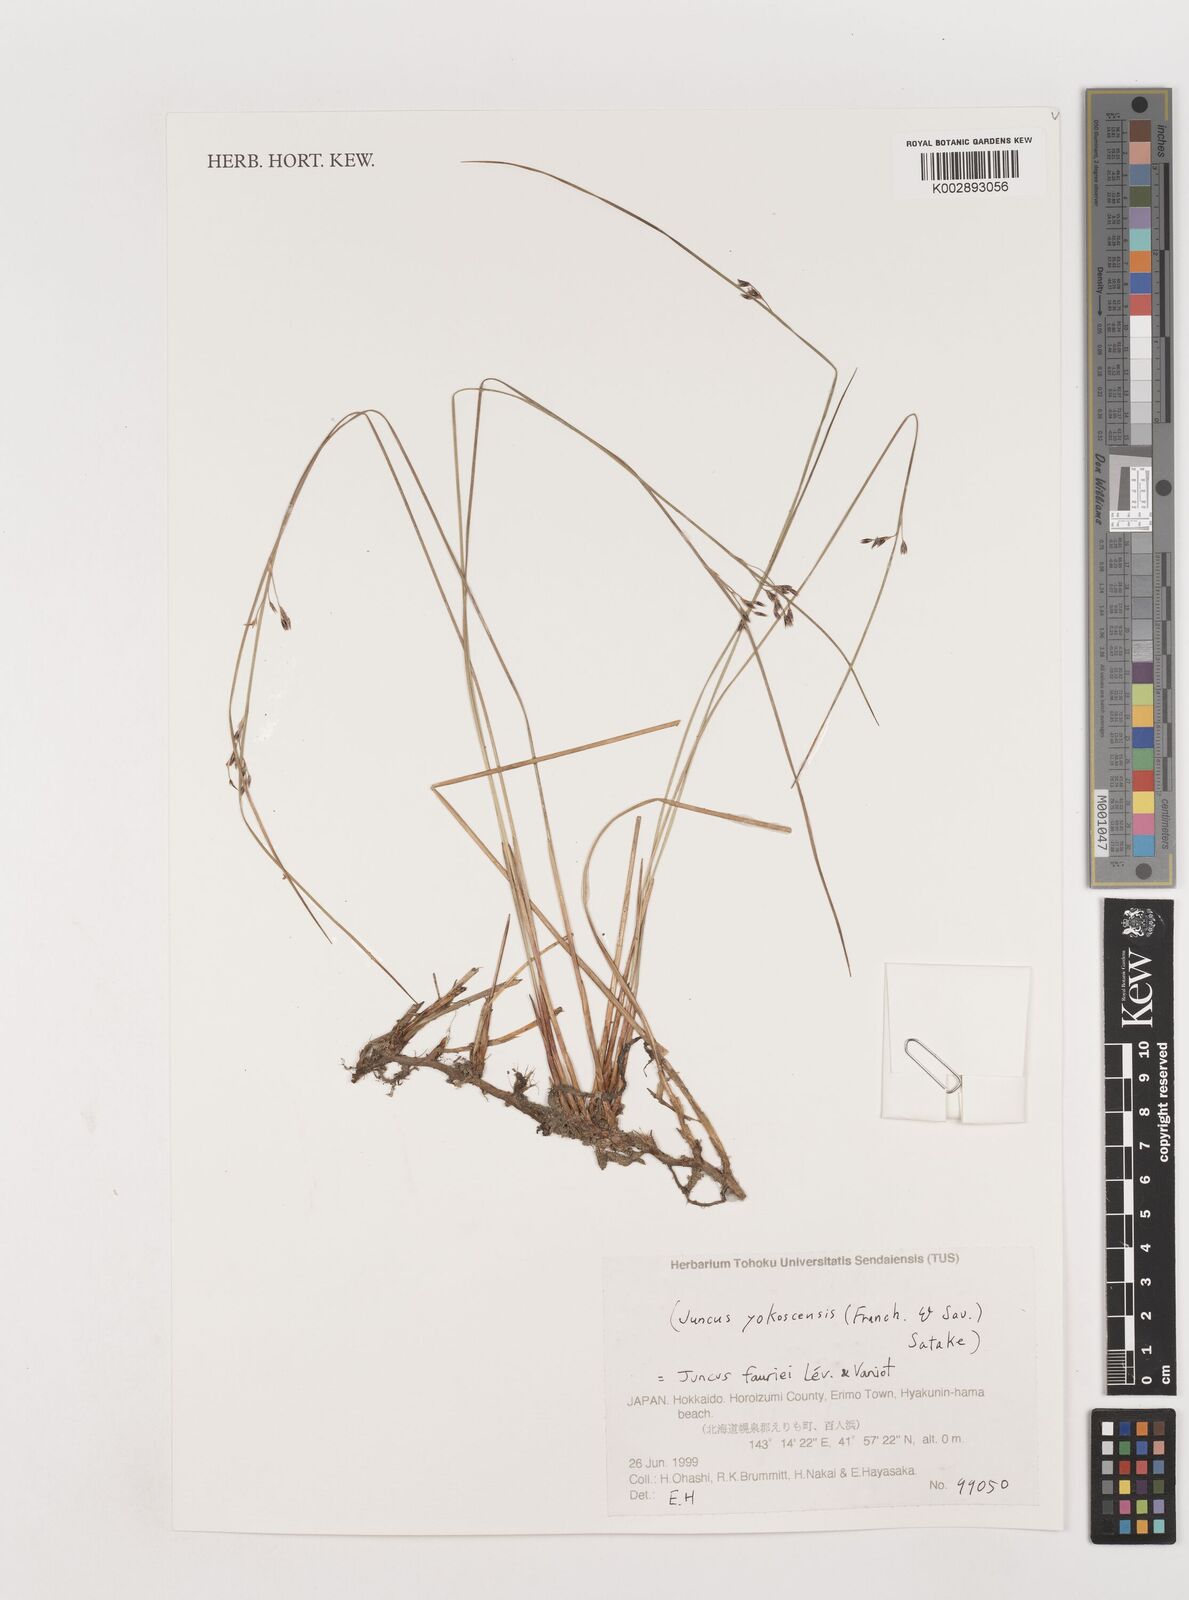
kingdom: Plantae
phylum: Tracheophyta
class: Liliopsida
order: Poales
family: Juncaceae
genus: Juncus
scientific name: Juncus fauriei
